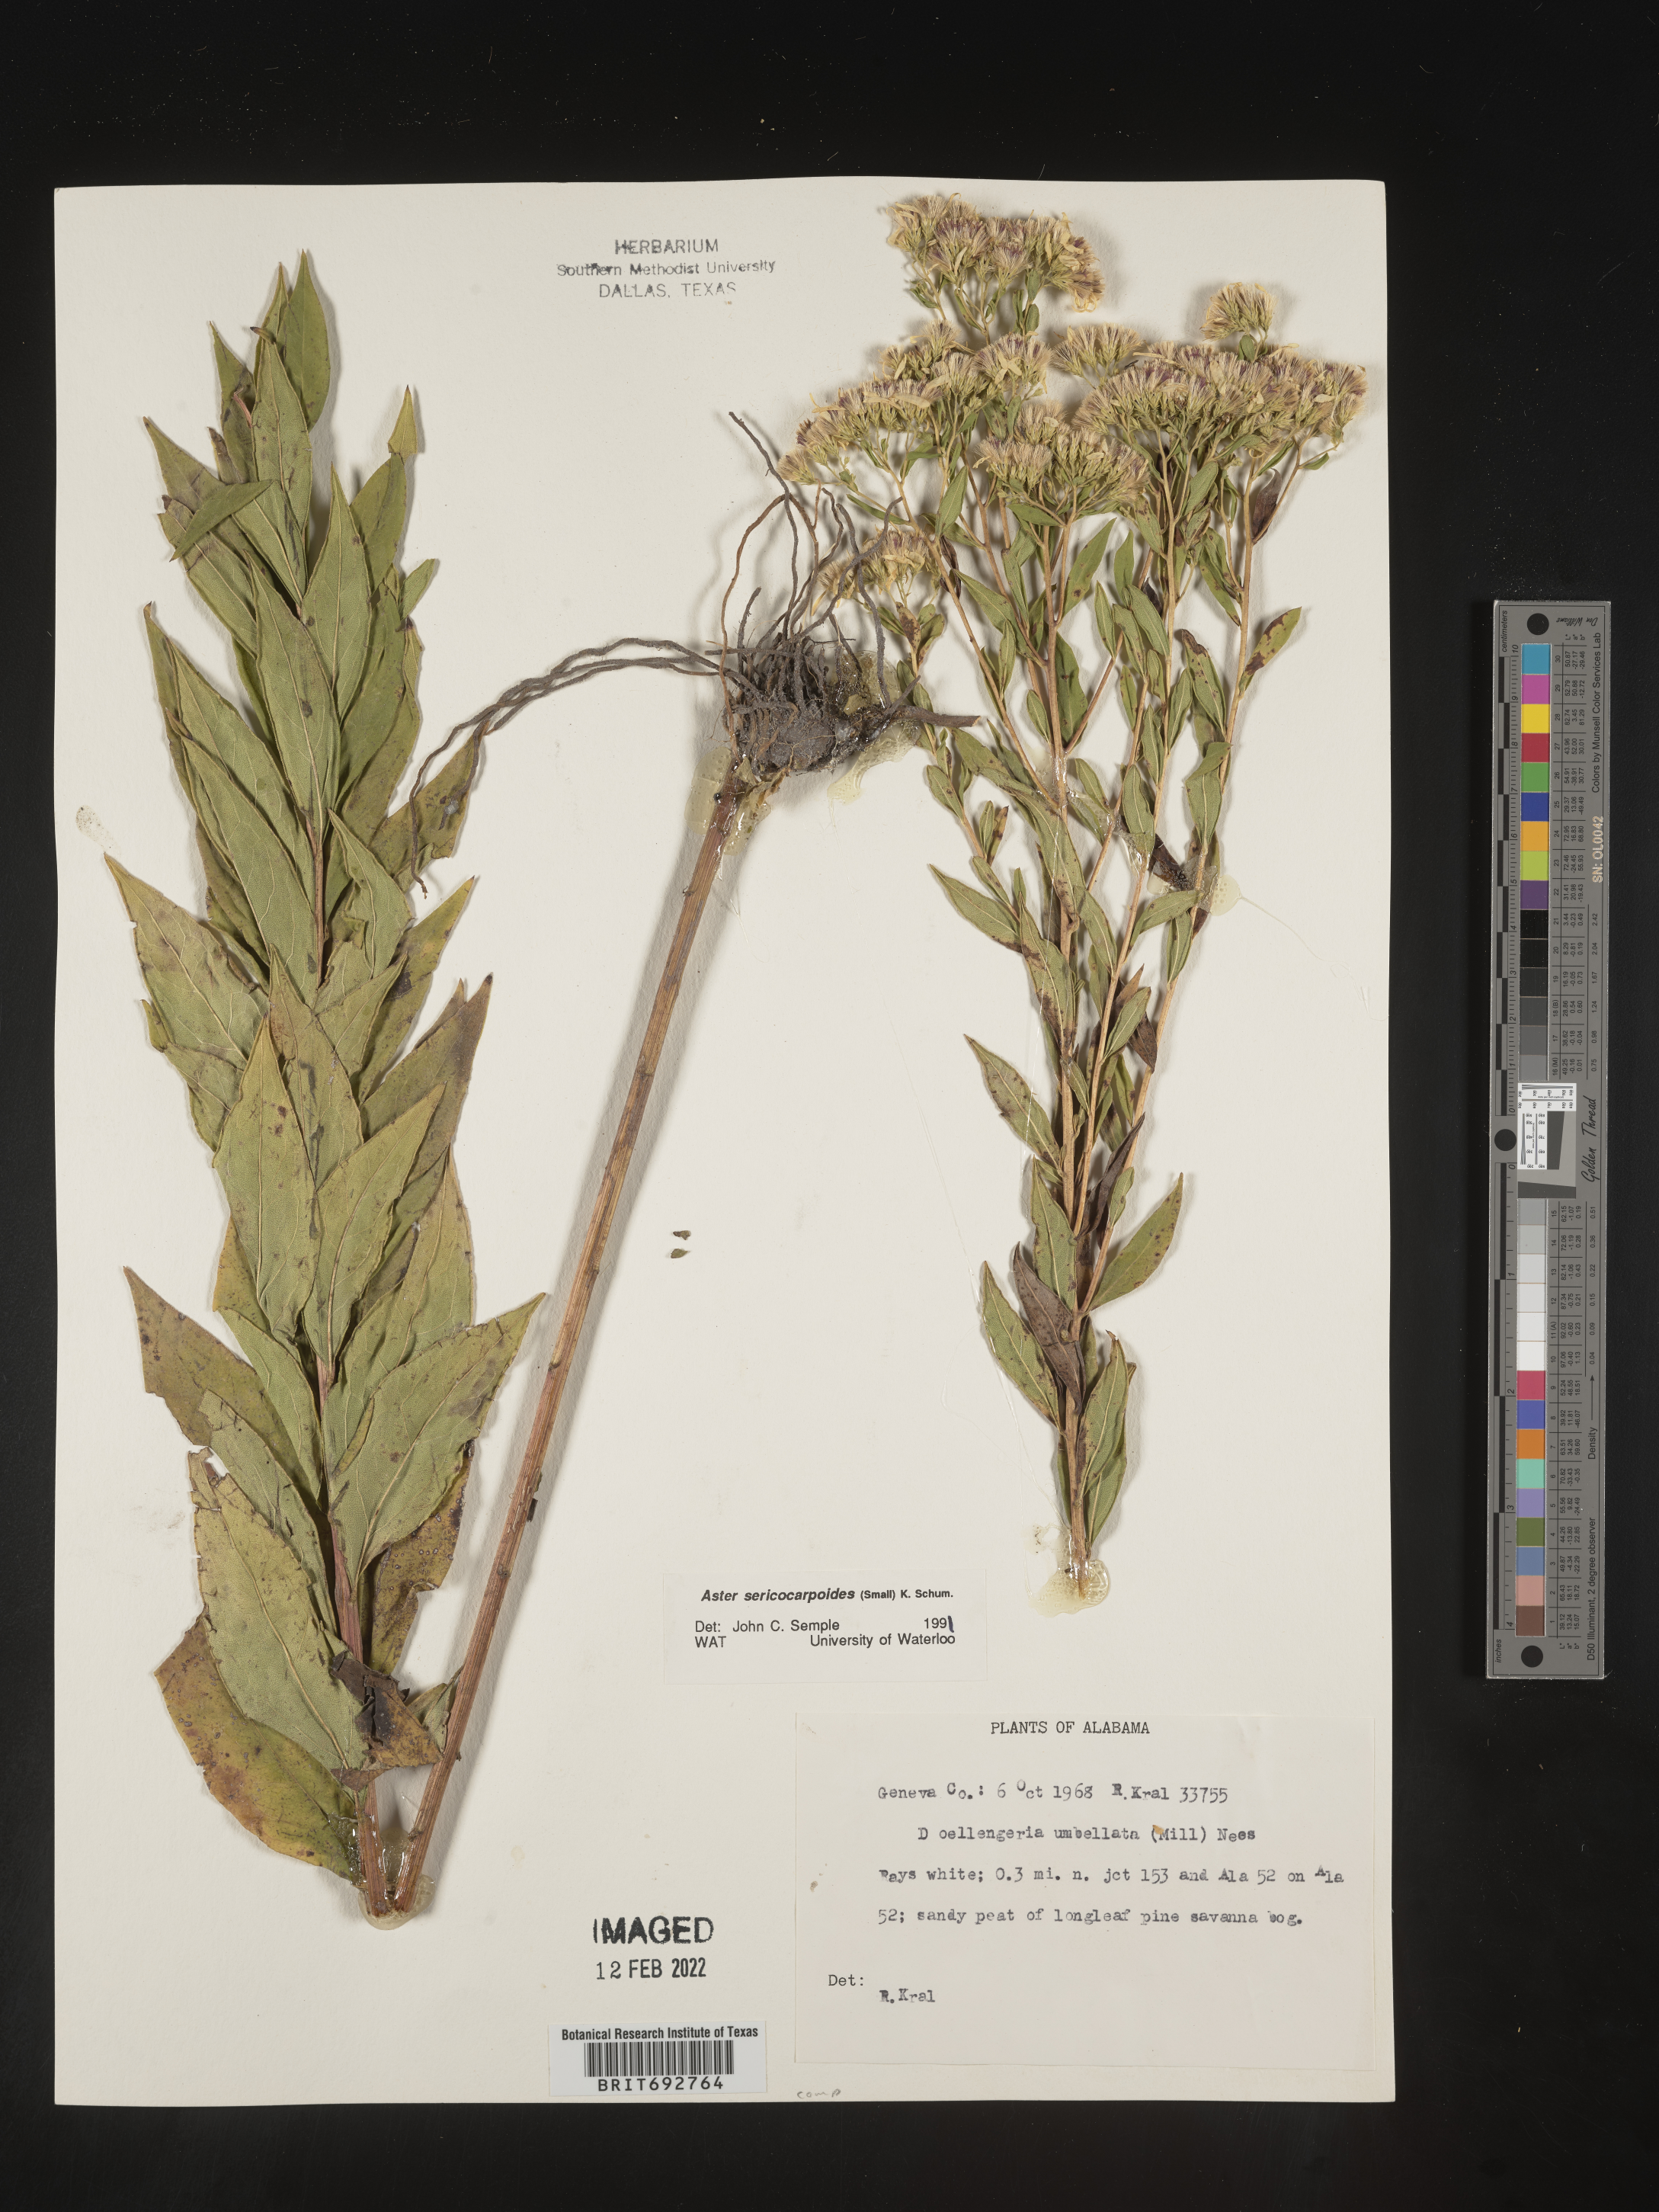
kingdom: Plantae
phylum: Tracheophyta
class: Magnoliopsida
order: Asterales
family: Asteraceae
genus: Doellingeria
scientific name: Doellingeria sericocarpoides
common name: Southern tall flat-top aster
